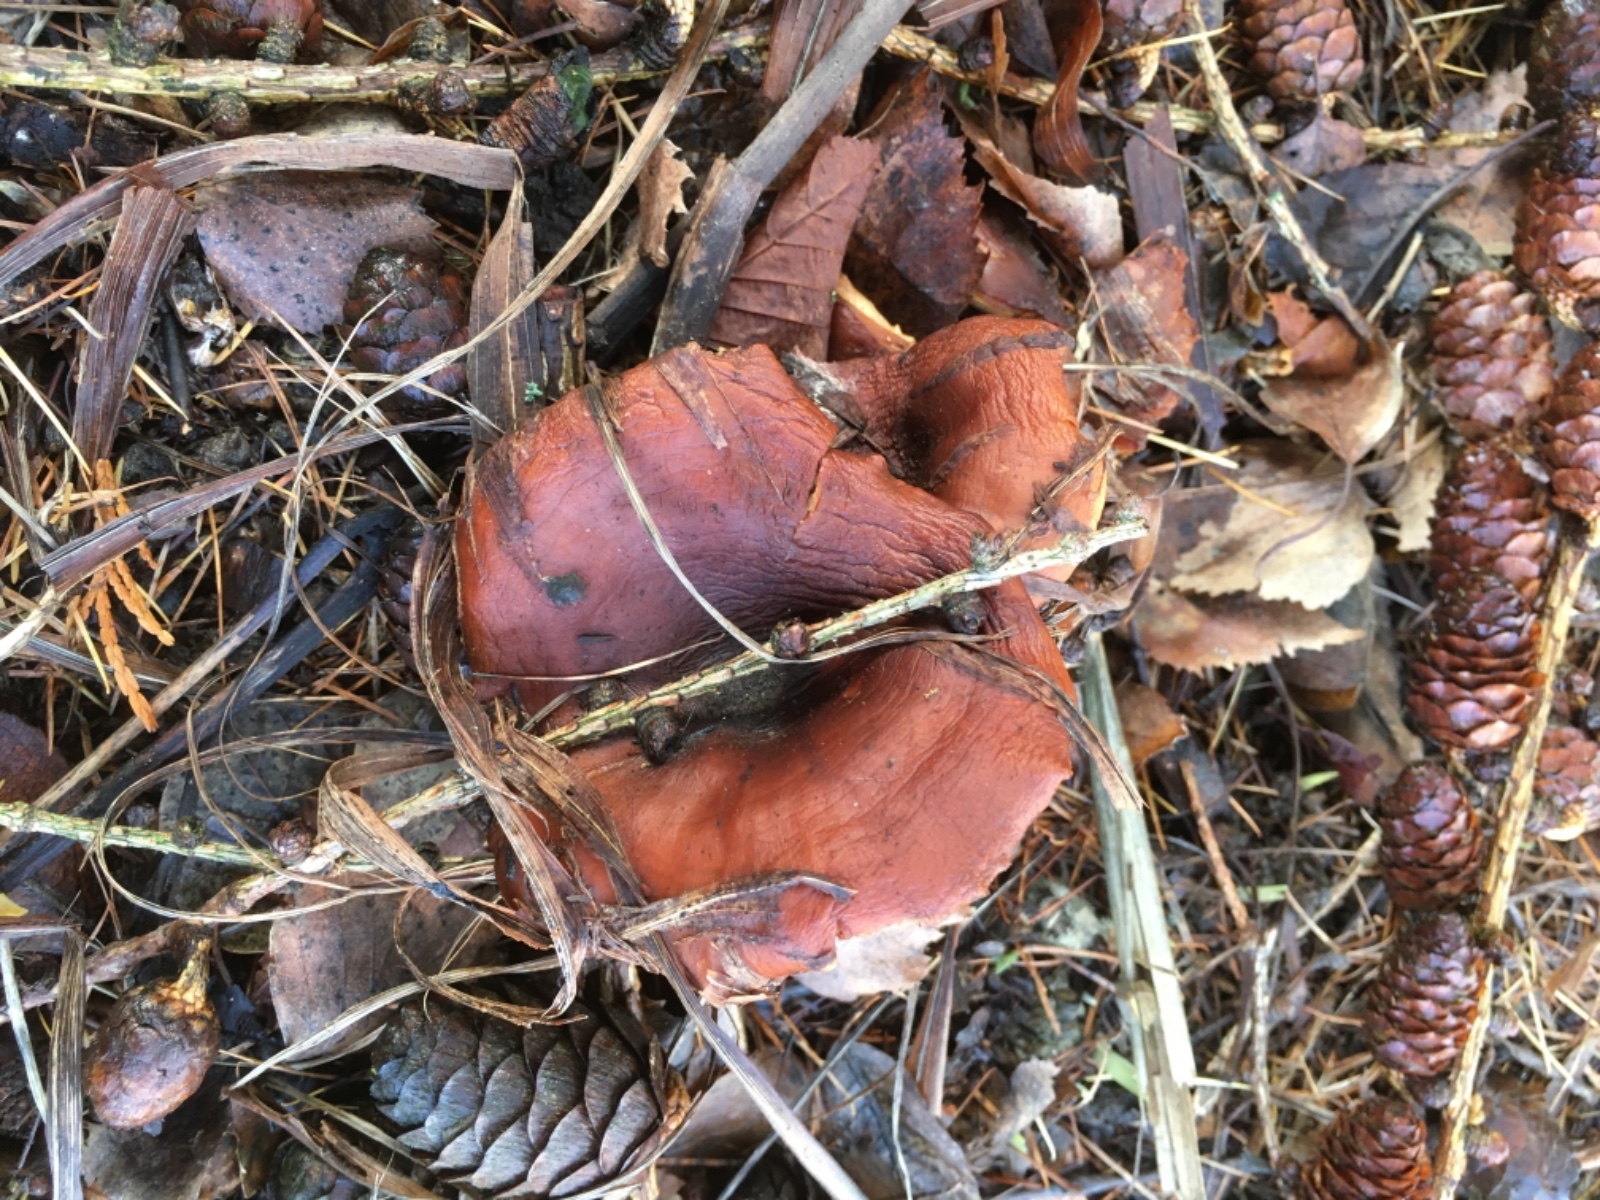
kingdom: Fungi
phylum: Basidiomycota
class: Agaricomycetes
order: Agaricales
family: Tricholomataceae
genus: Paralepista
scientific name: Paralepista flaccida
